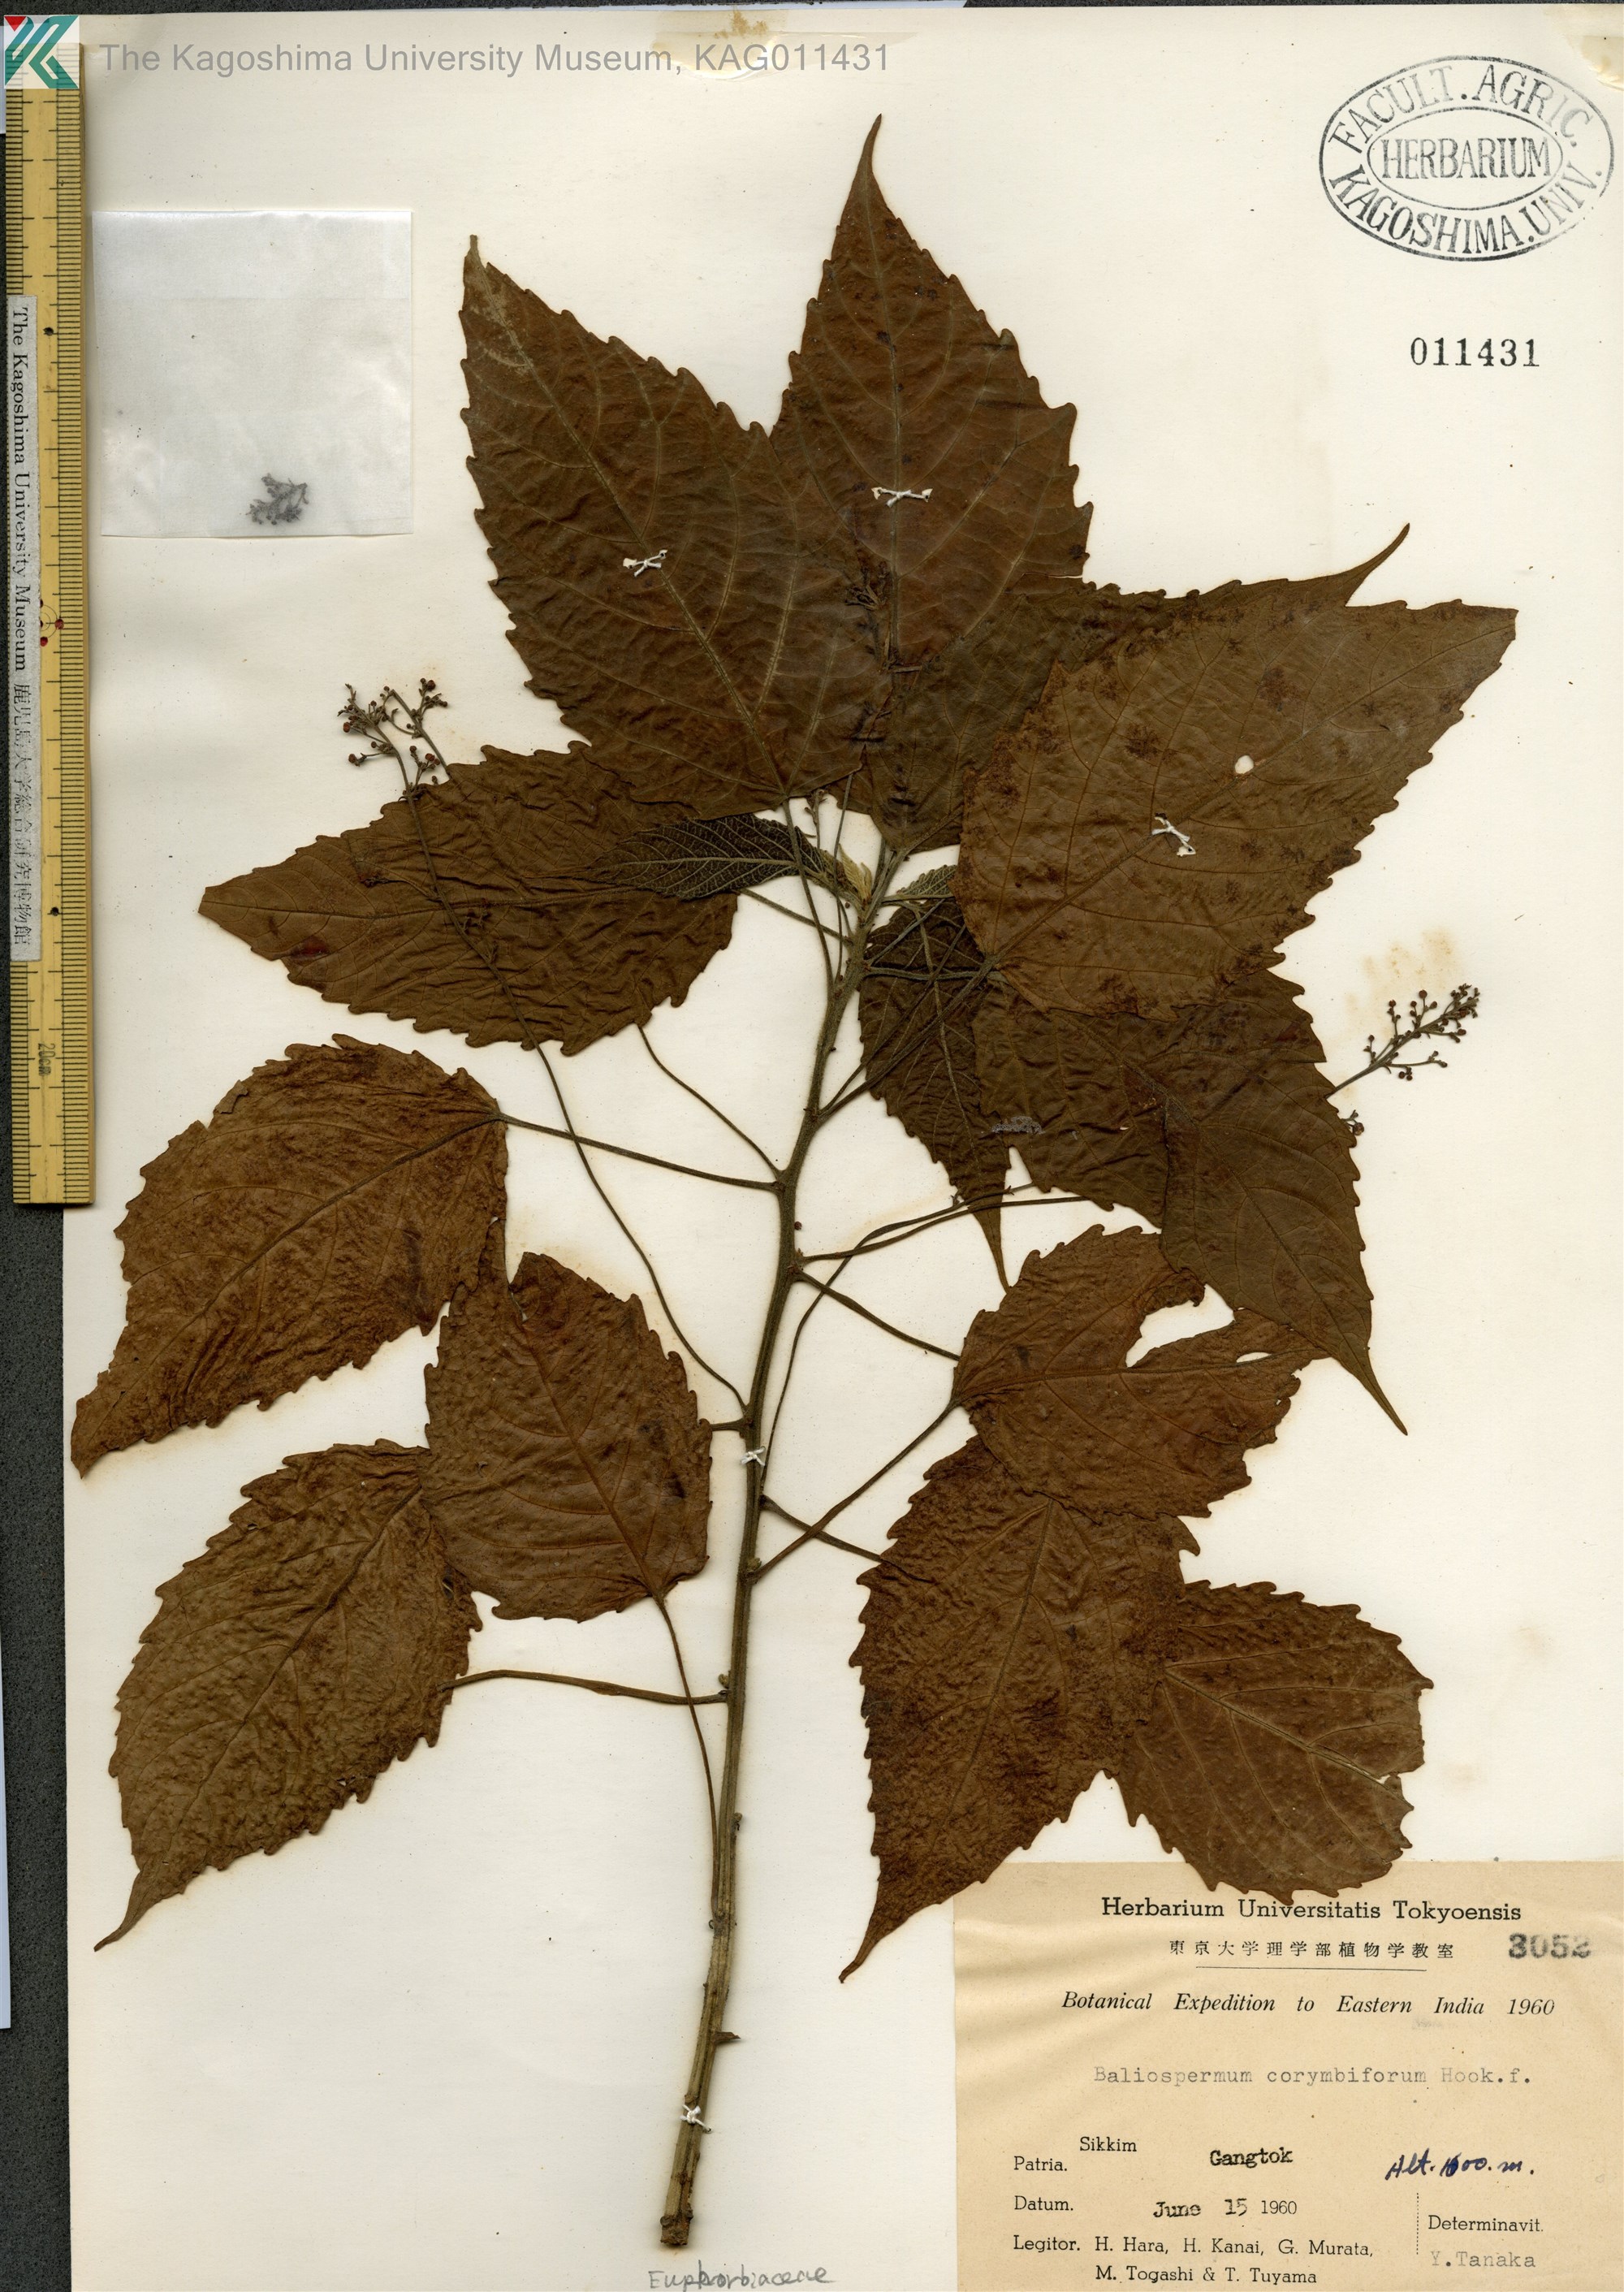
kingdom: Plantae
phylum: Tracheophyta
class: Magnoliopsida
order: Malpighiales
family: Euphorbiaceae
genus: Baliospermum
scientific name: Baliospermum calycinum
